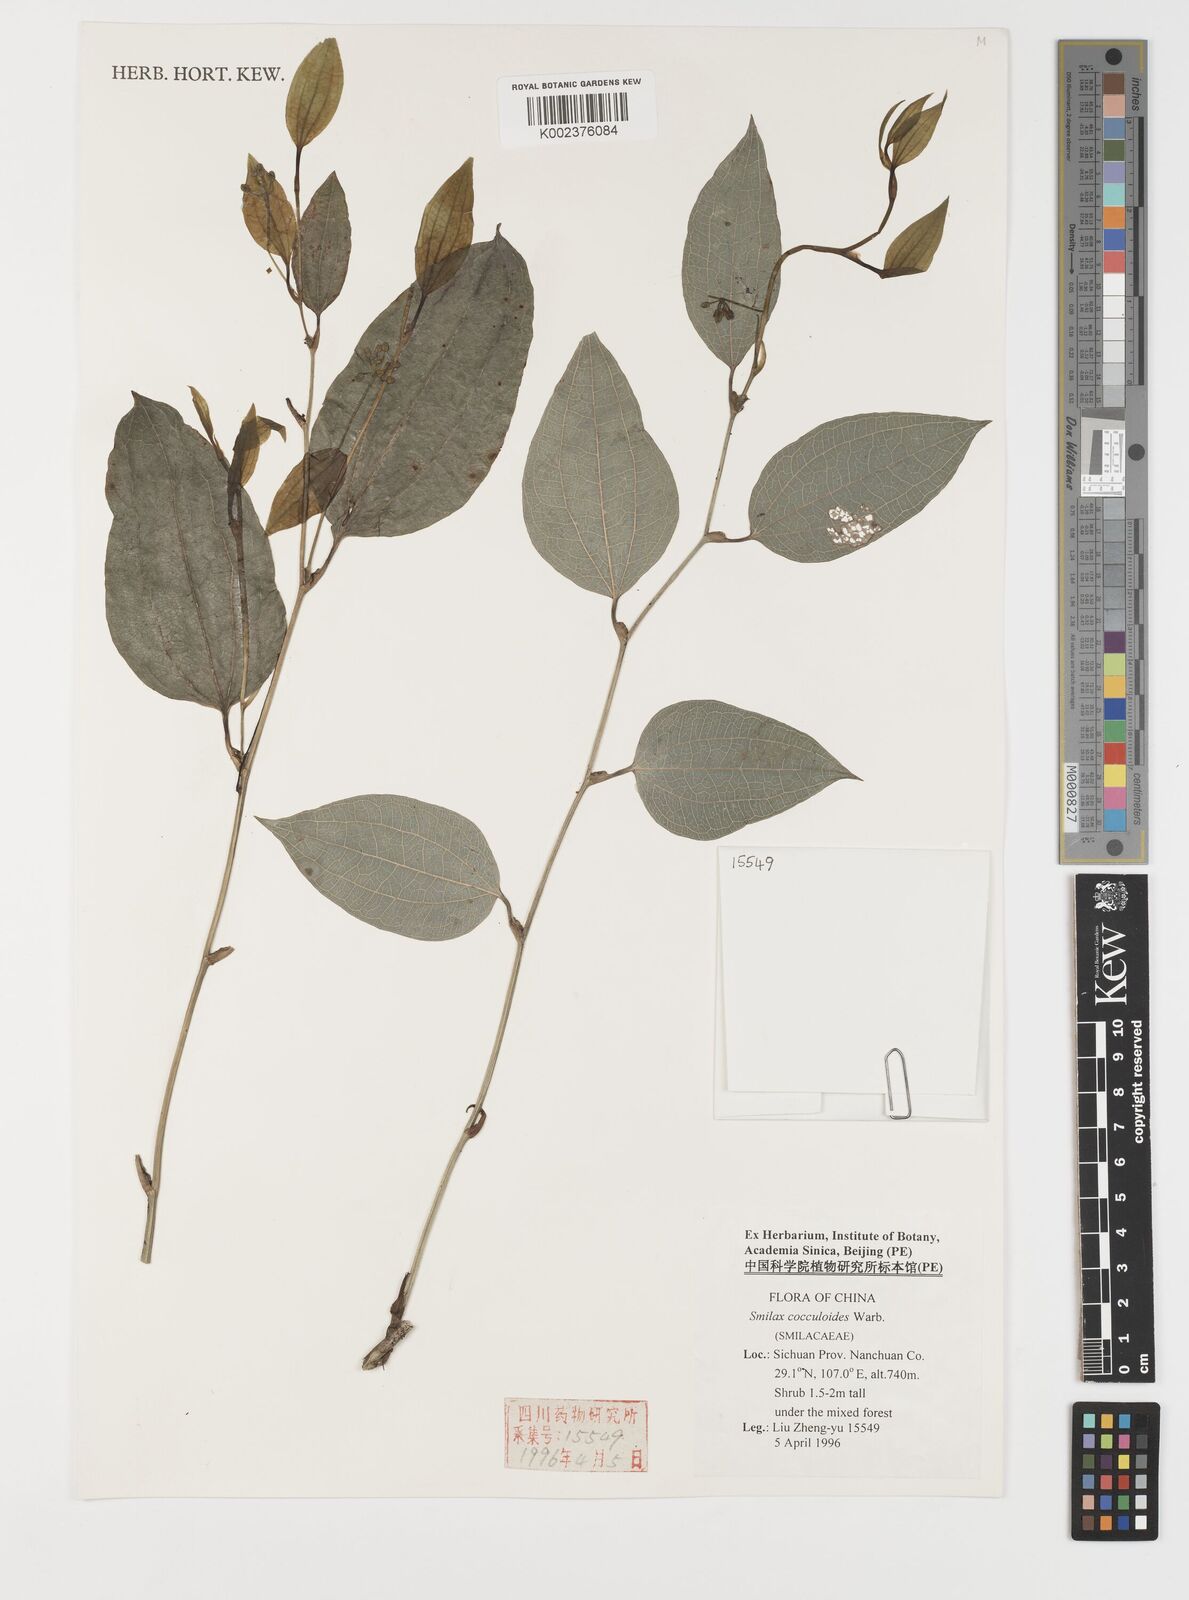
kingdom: Plantae
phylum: Tracheophyta
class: Liliopsida
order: Liliales
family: Smilacaceae
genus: Smilax
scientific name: Smilax cocculoides
